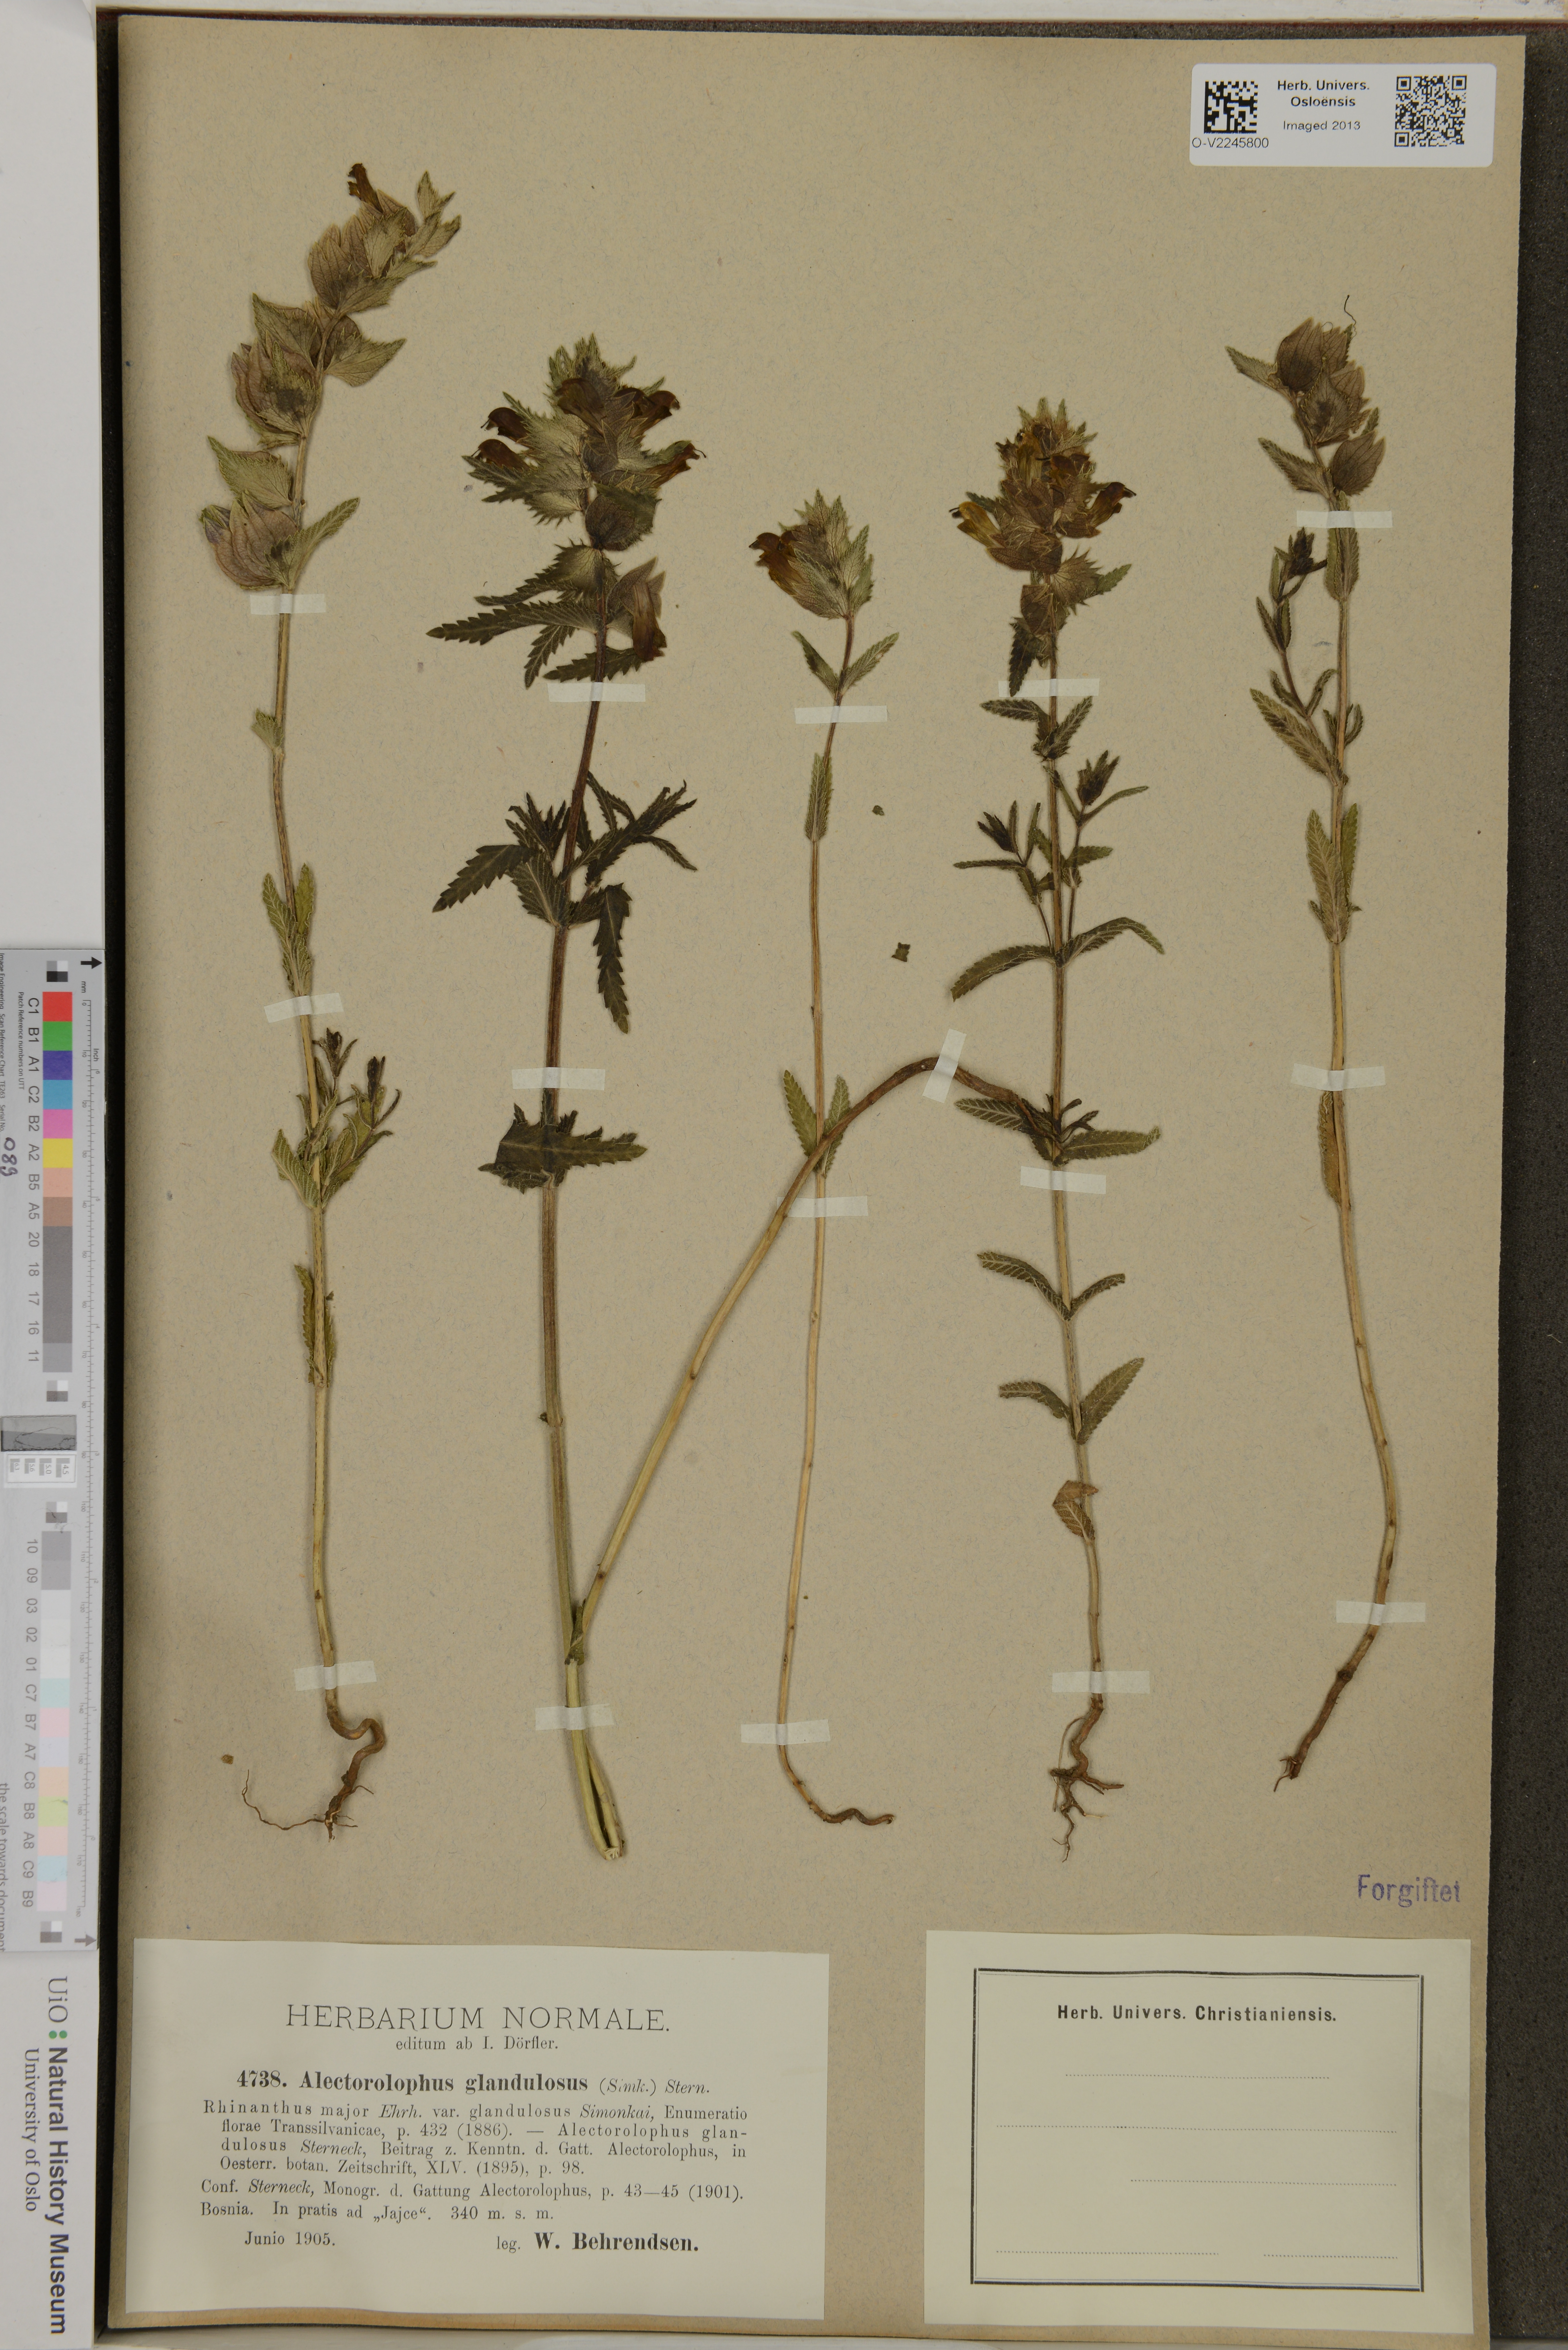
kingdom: Plantae
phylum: Tracheophyta
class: Magnoliopsida
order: Lamiales
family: Orobanchaceae
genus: Rhinanthus
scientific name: Rhinanthus rumelicus
